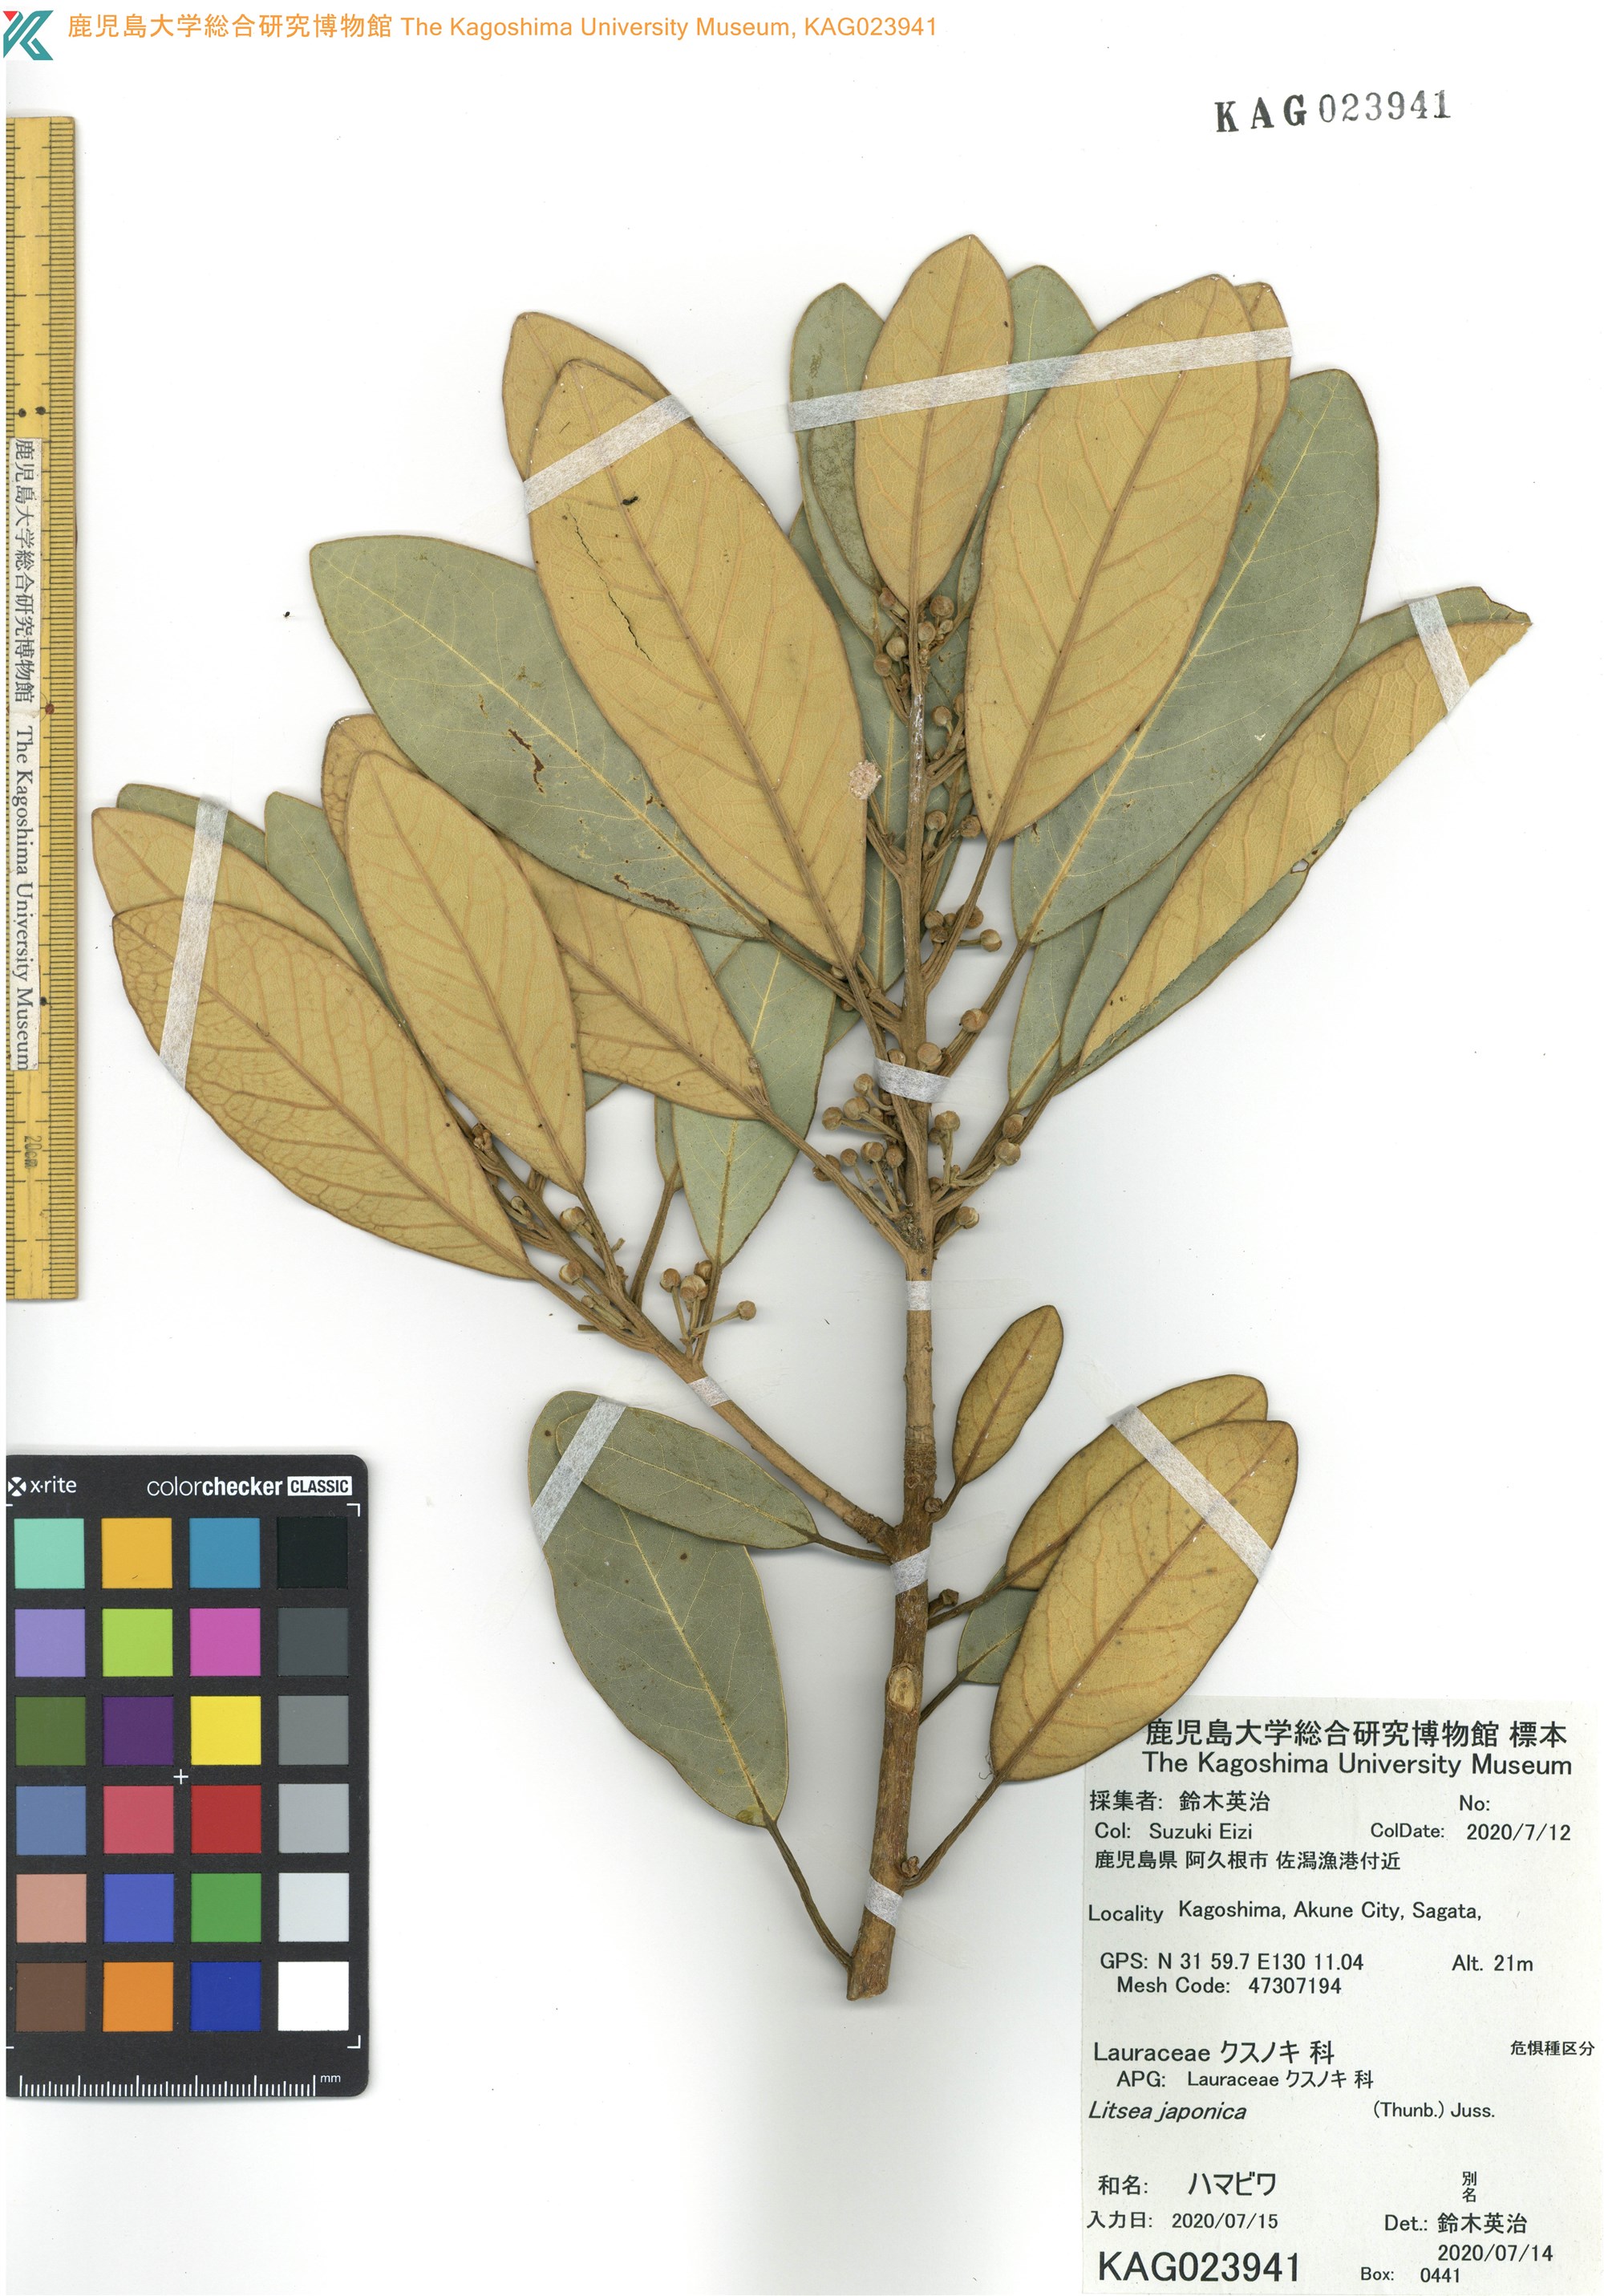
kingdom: Plantae
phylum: Tracheophyta
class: Magnoliopsida
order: Laurales
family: Lauraceae
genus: Litsea
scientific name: Litsea japonica
